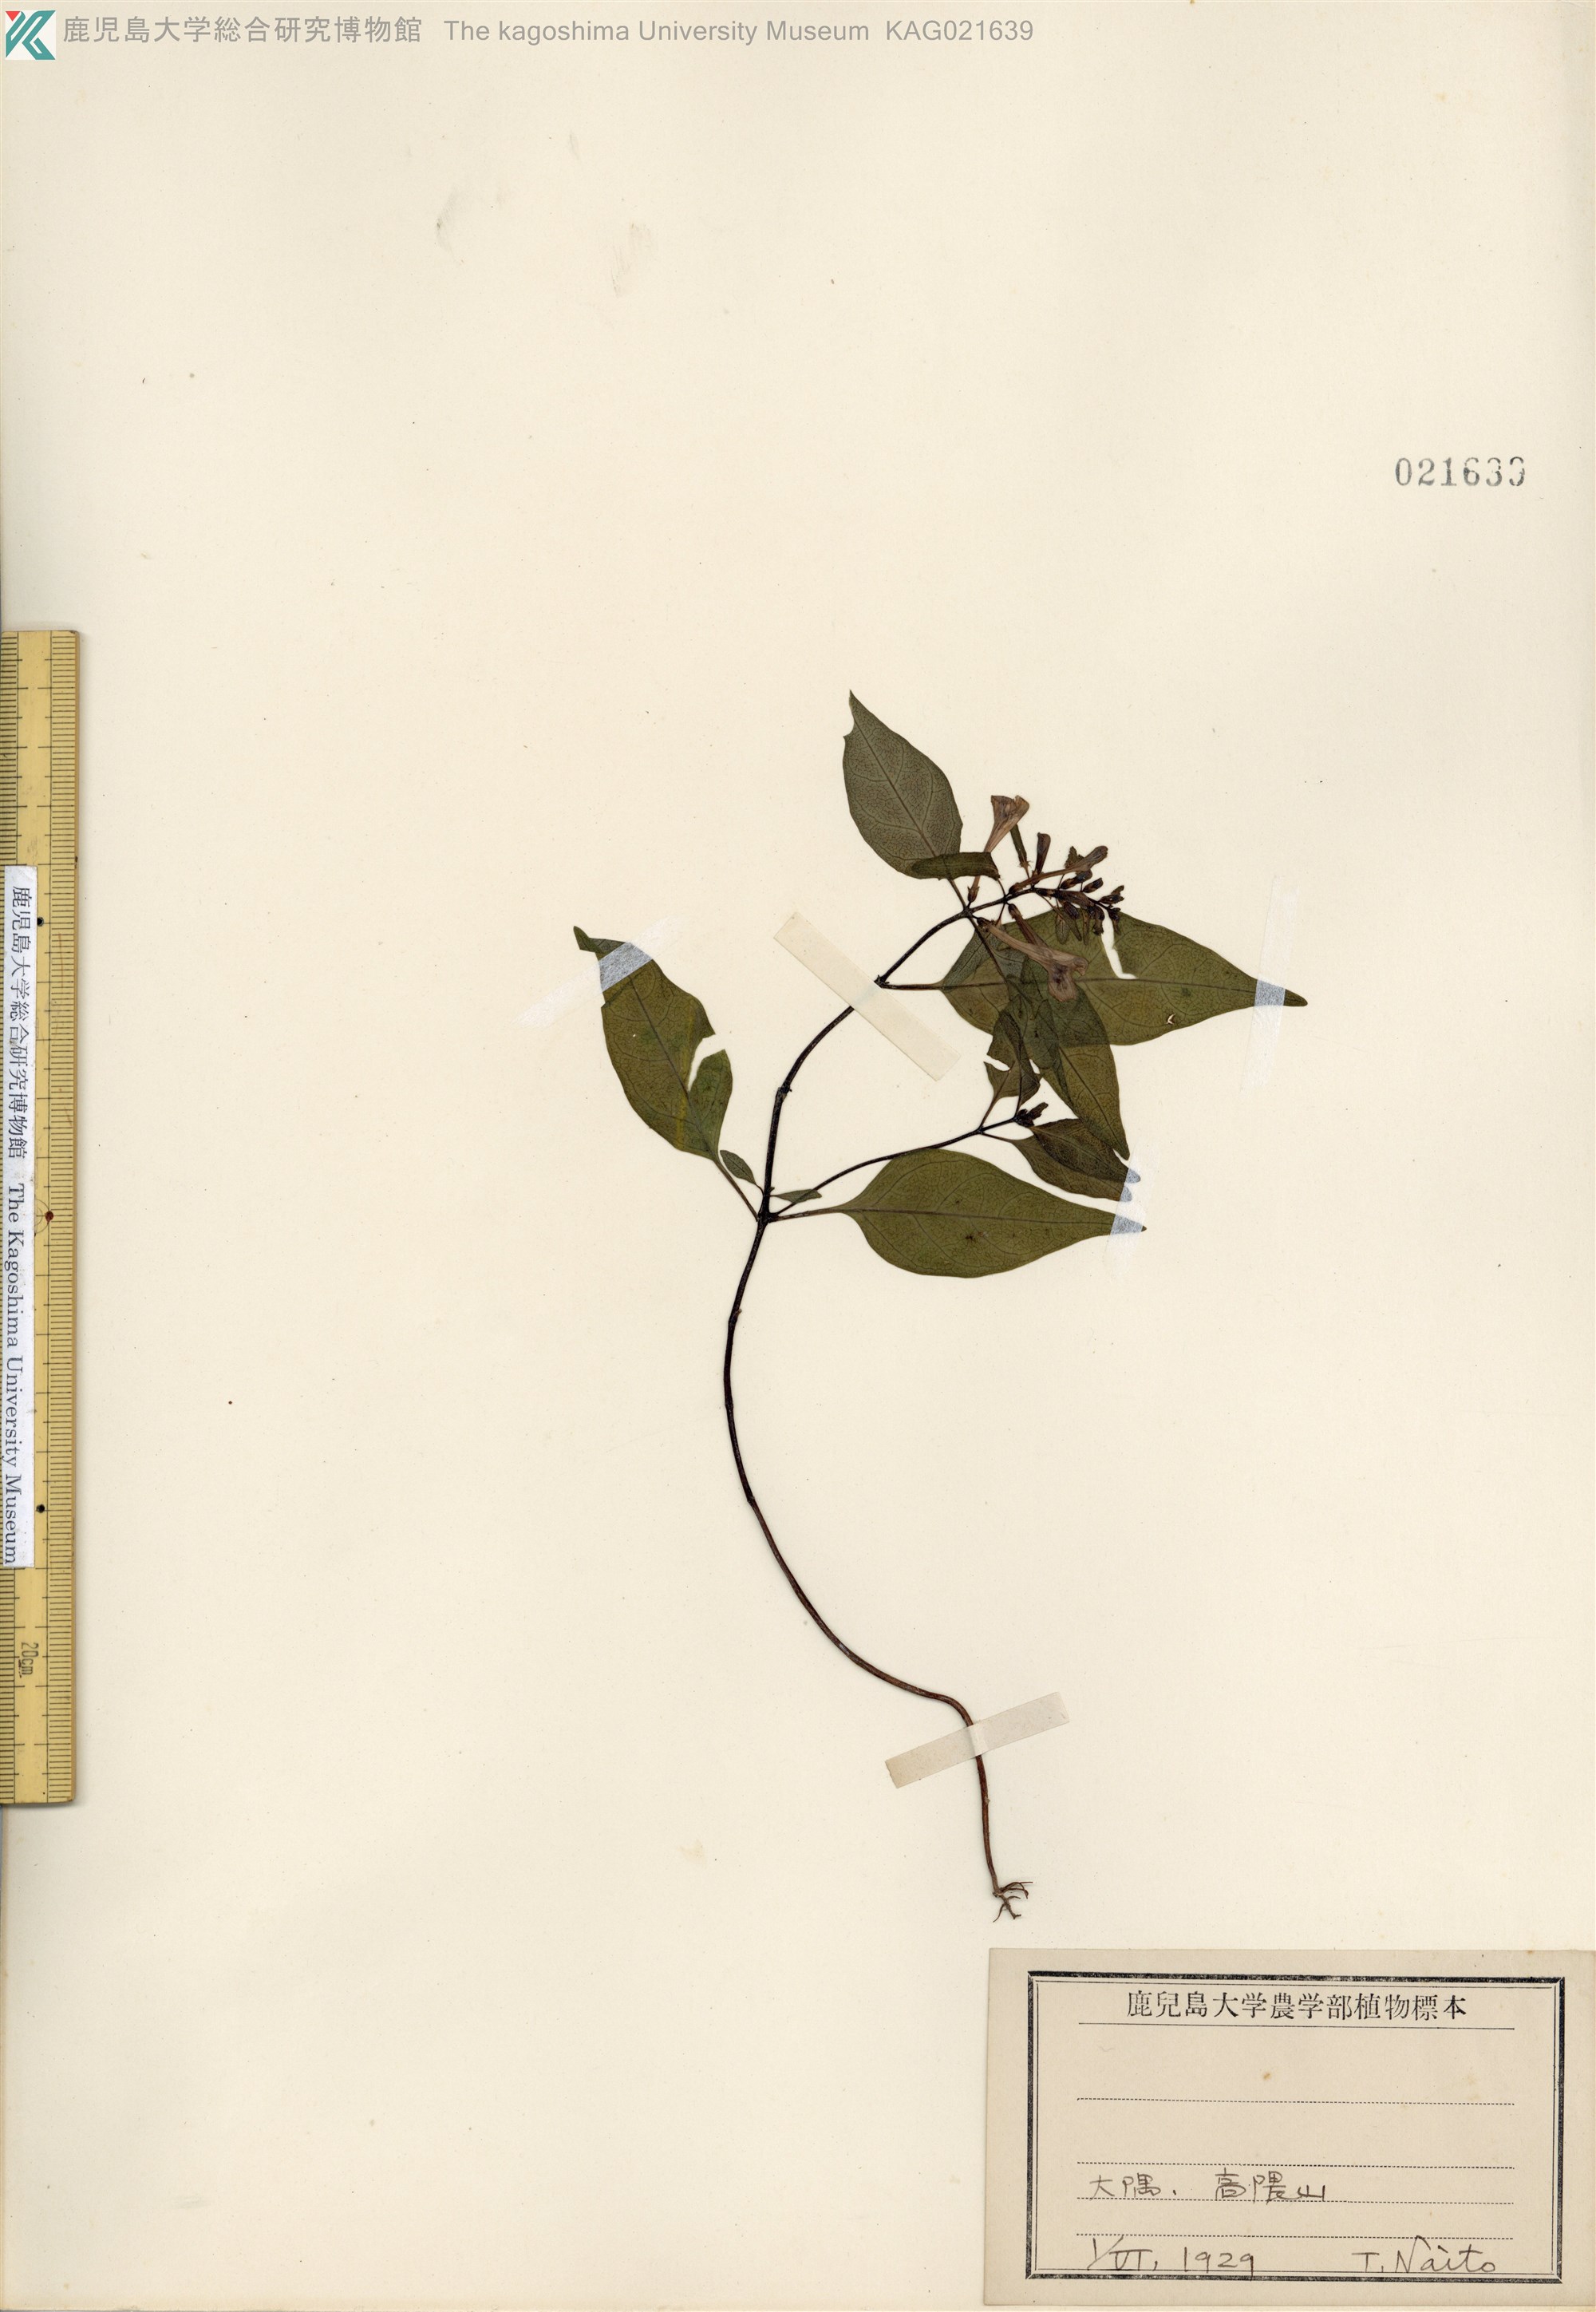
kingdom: Plantae
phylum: Tracheophyta
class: Magnoliopsida
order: Lamiales
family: Orobanchaceae
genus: Melampyrum
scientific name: Melampyrum laxum
